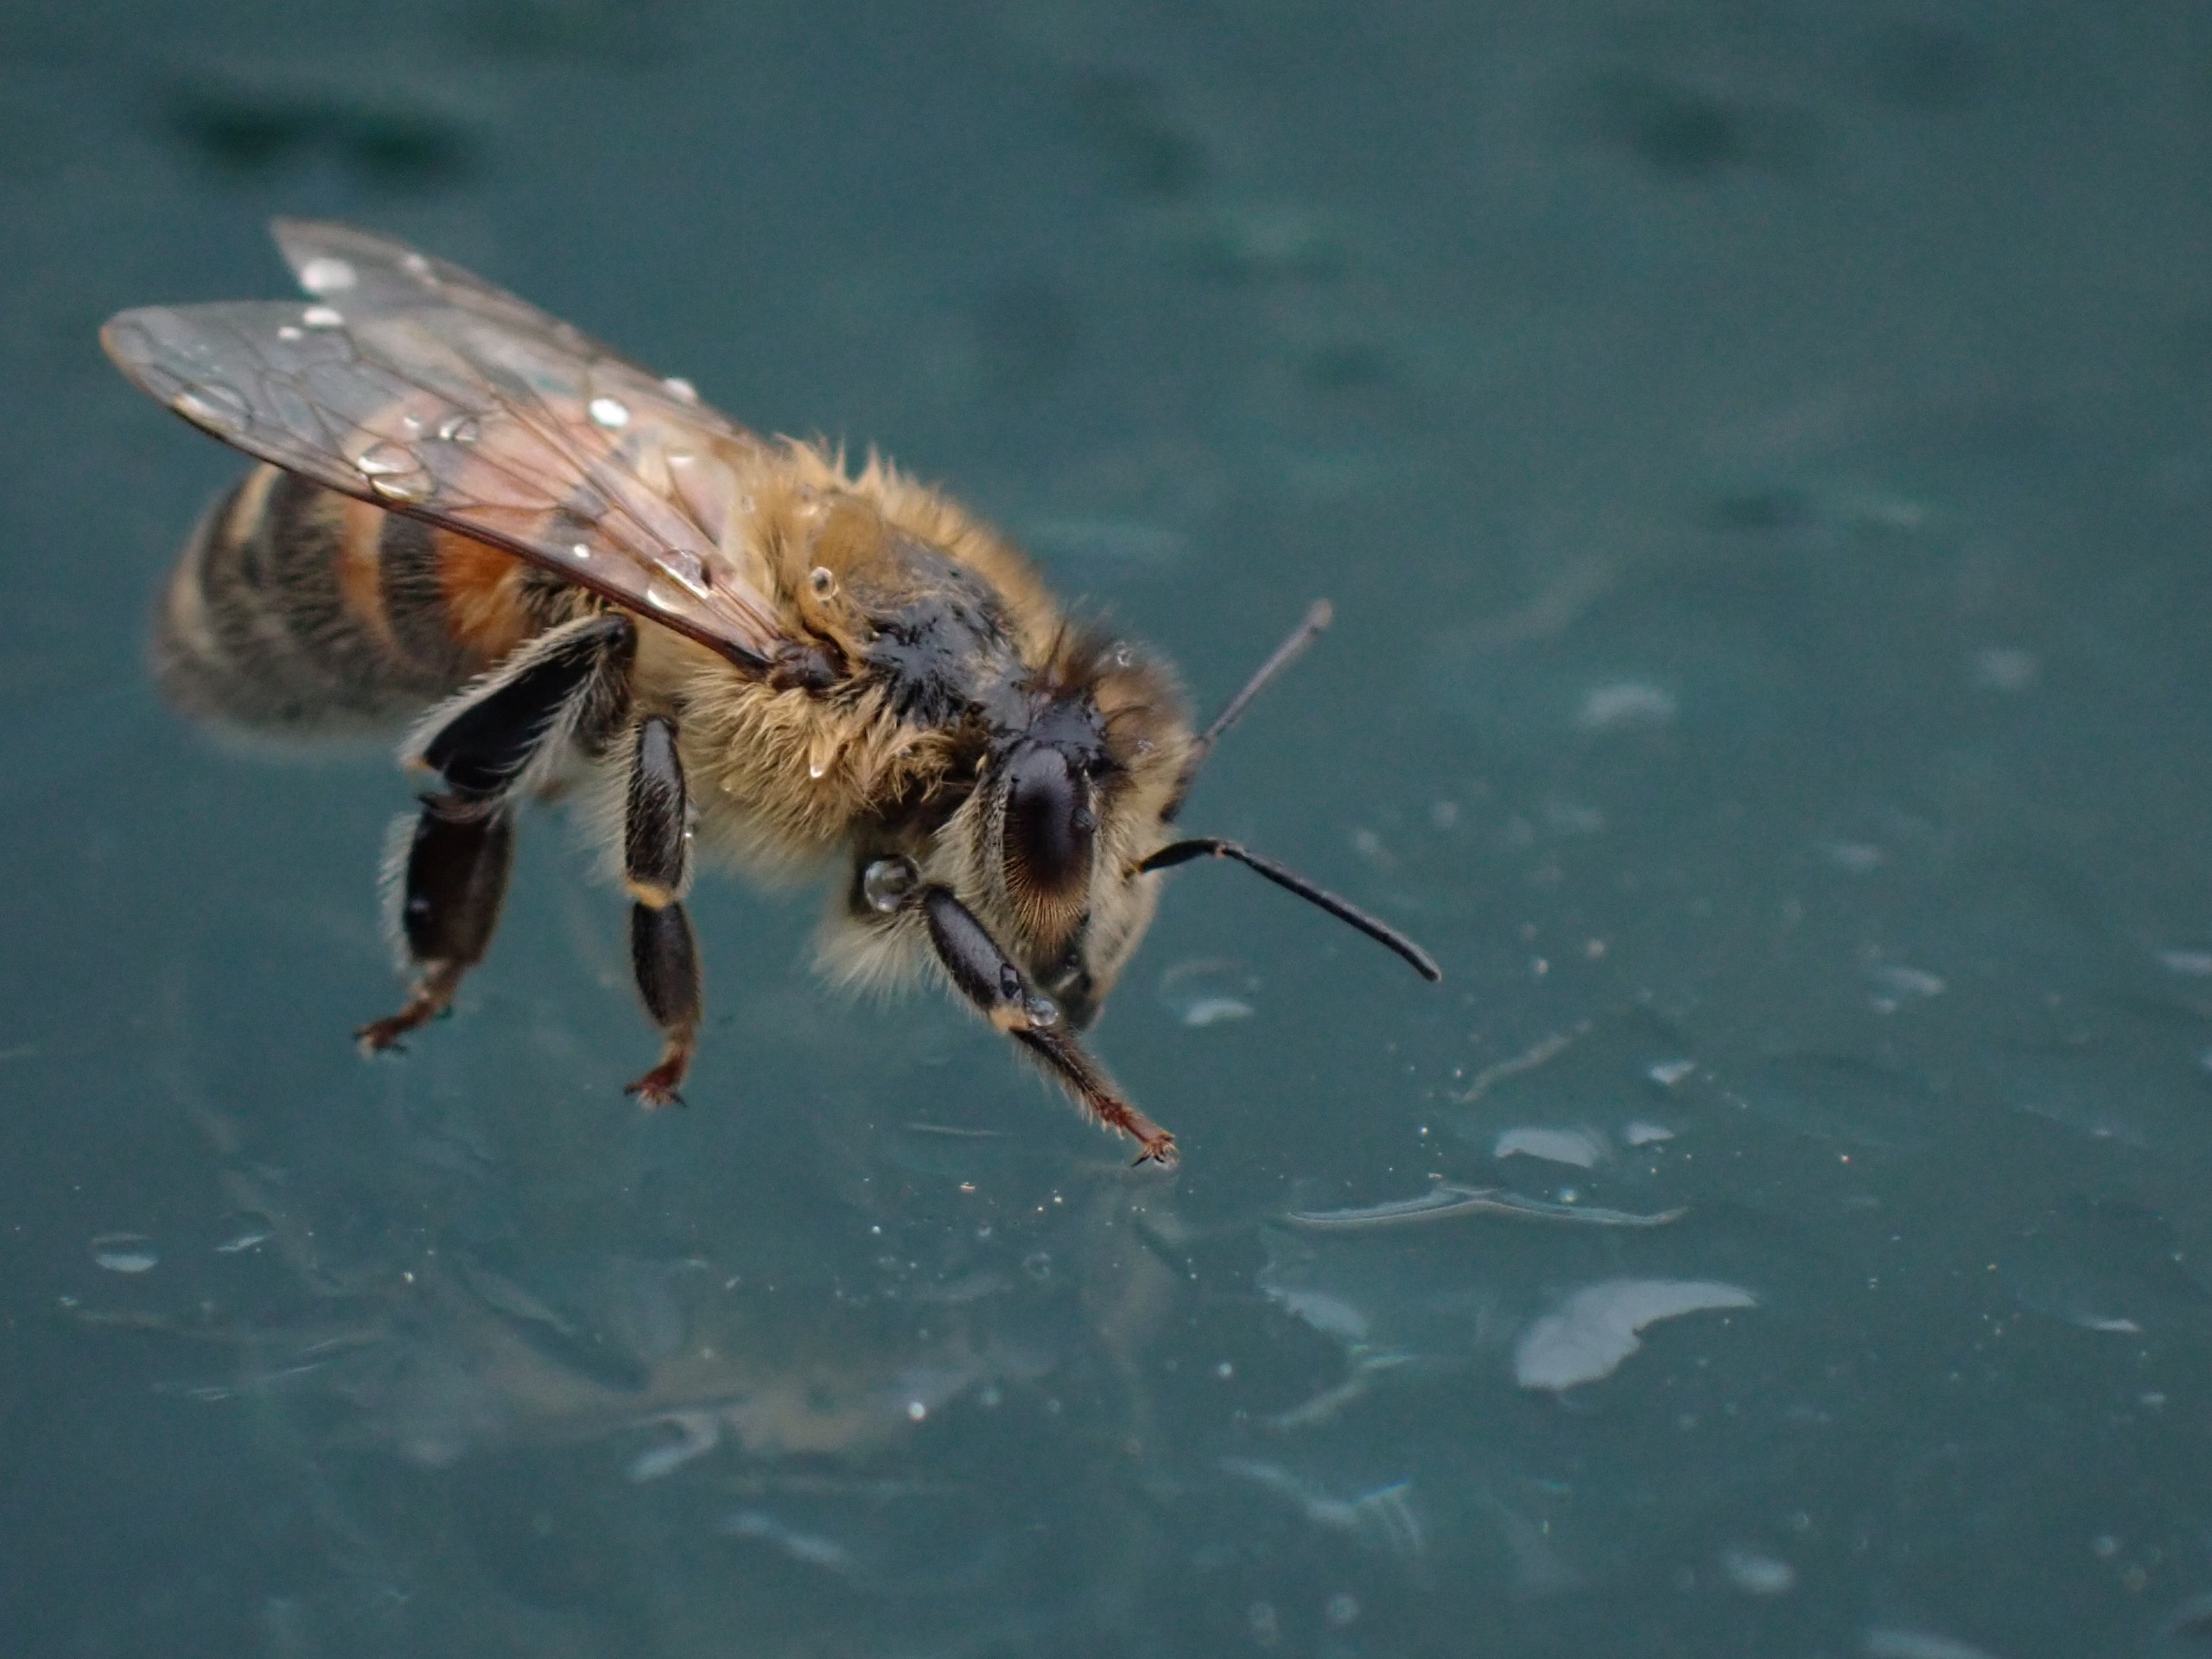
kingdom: Animalia
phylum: Arthropoda
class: Insecta
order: Hymenoptera
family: Apidae
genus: Apis
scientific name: Apis mellifera
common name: Honningbi
